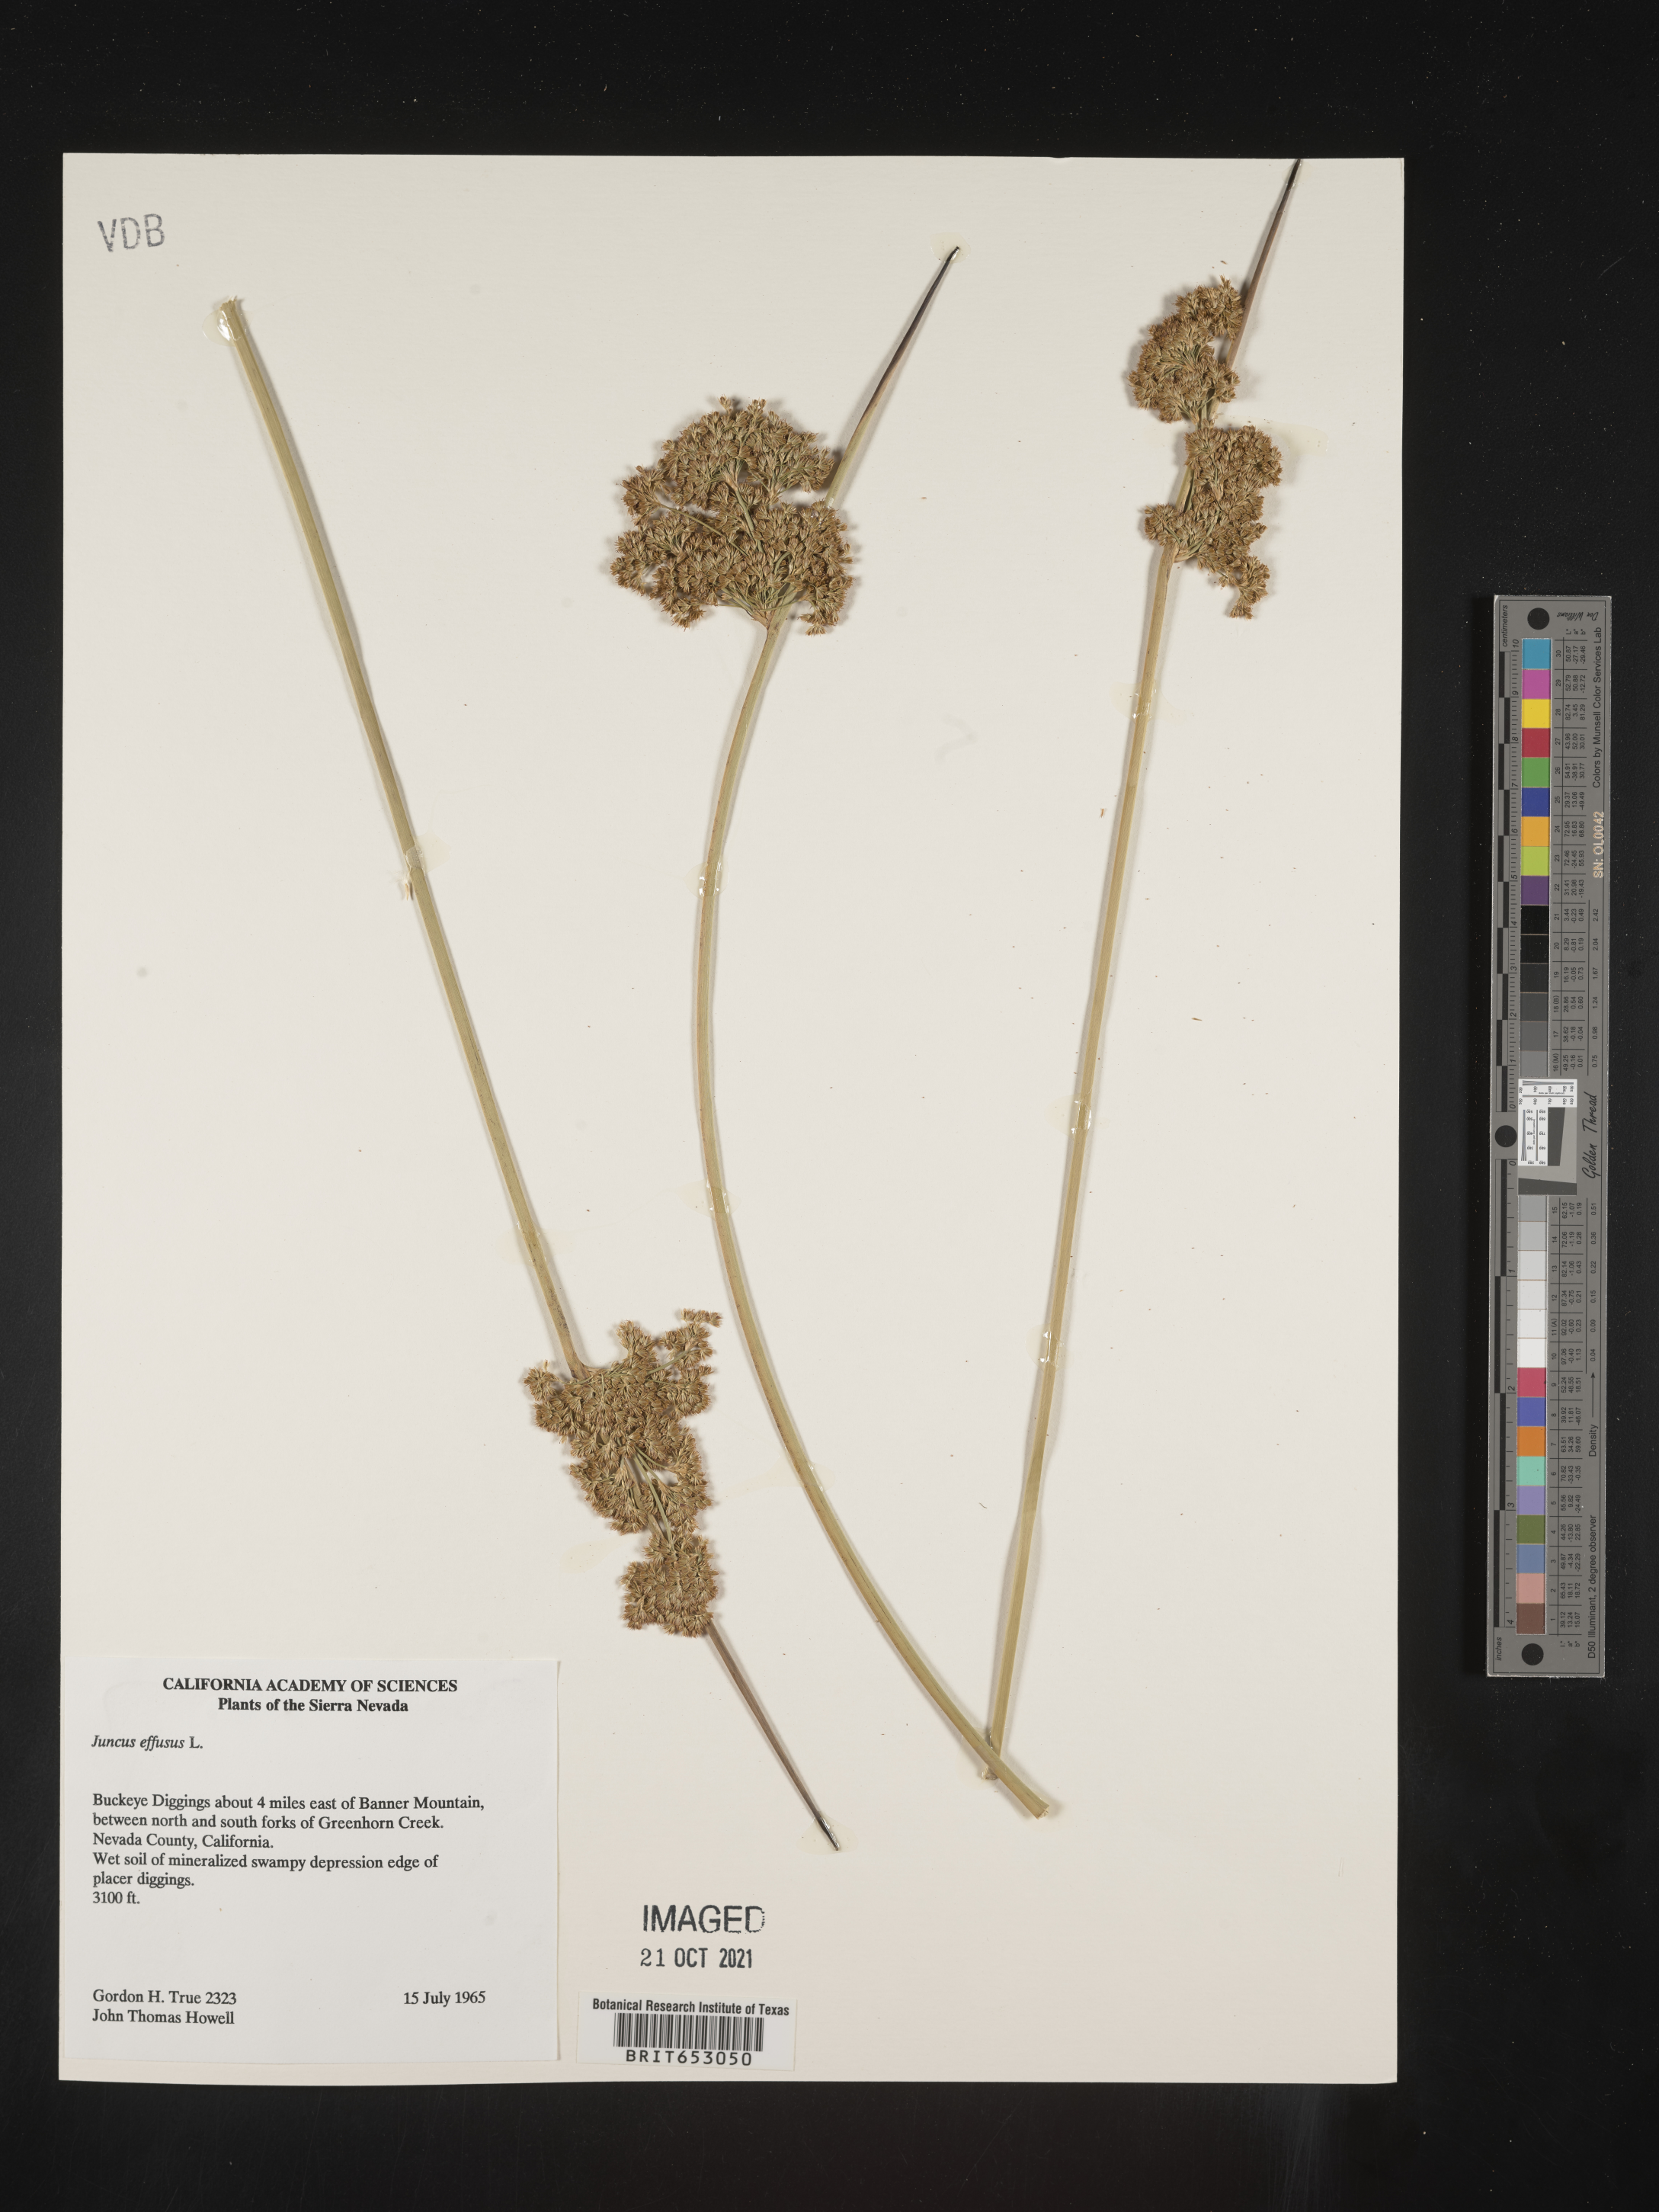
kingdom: Plantae
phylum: Tracheophyta
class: Liliopsida
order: Poales
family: Juncaceae
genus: Juncus
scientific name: Juncus effusus
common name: Soft rush
